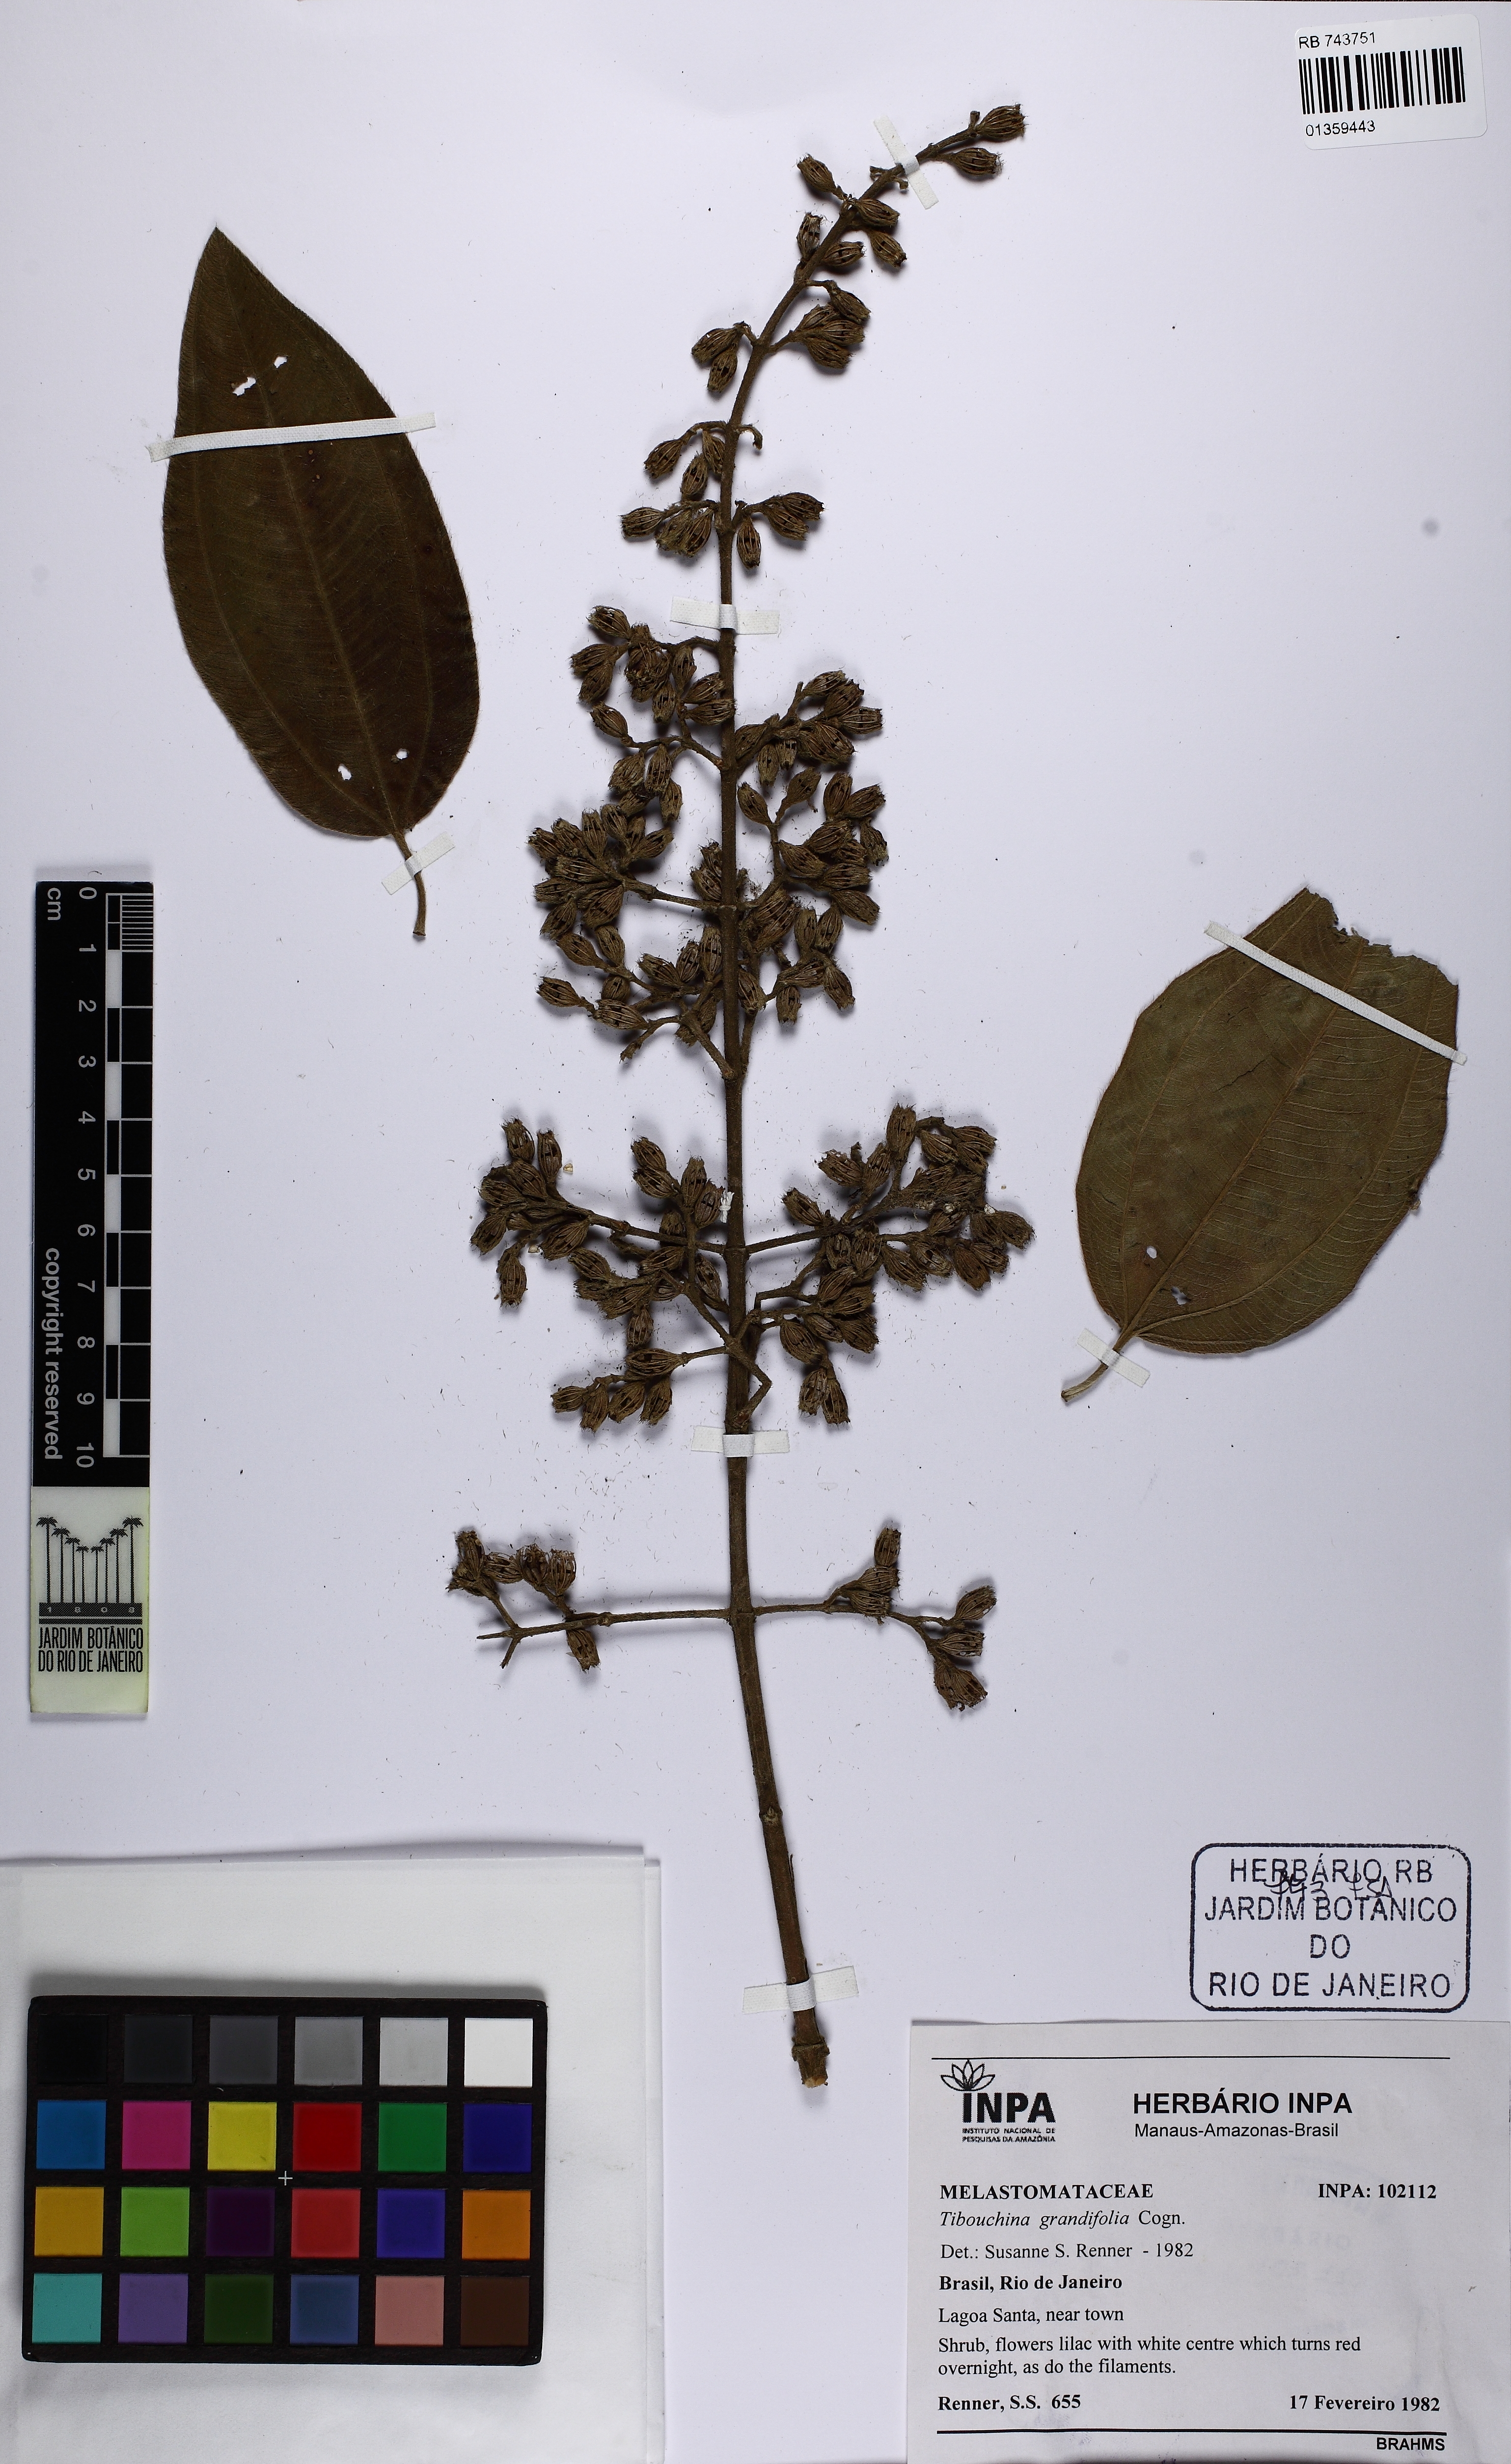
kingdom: Plantae
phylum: Tracheophyta
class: Magnoliopsida
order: Myrtales
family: Melastomataceae
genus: Pleroma
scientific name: Pleroma heteromallum
